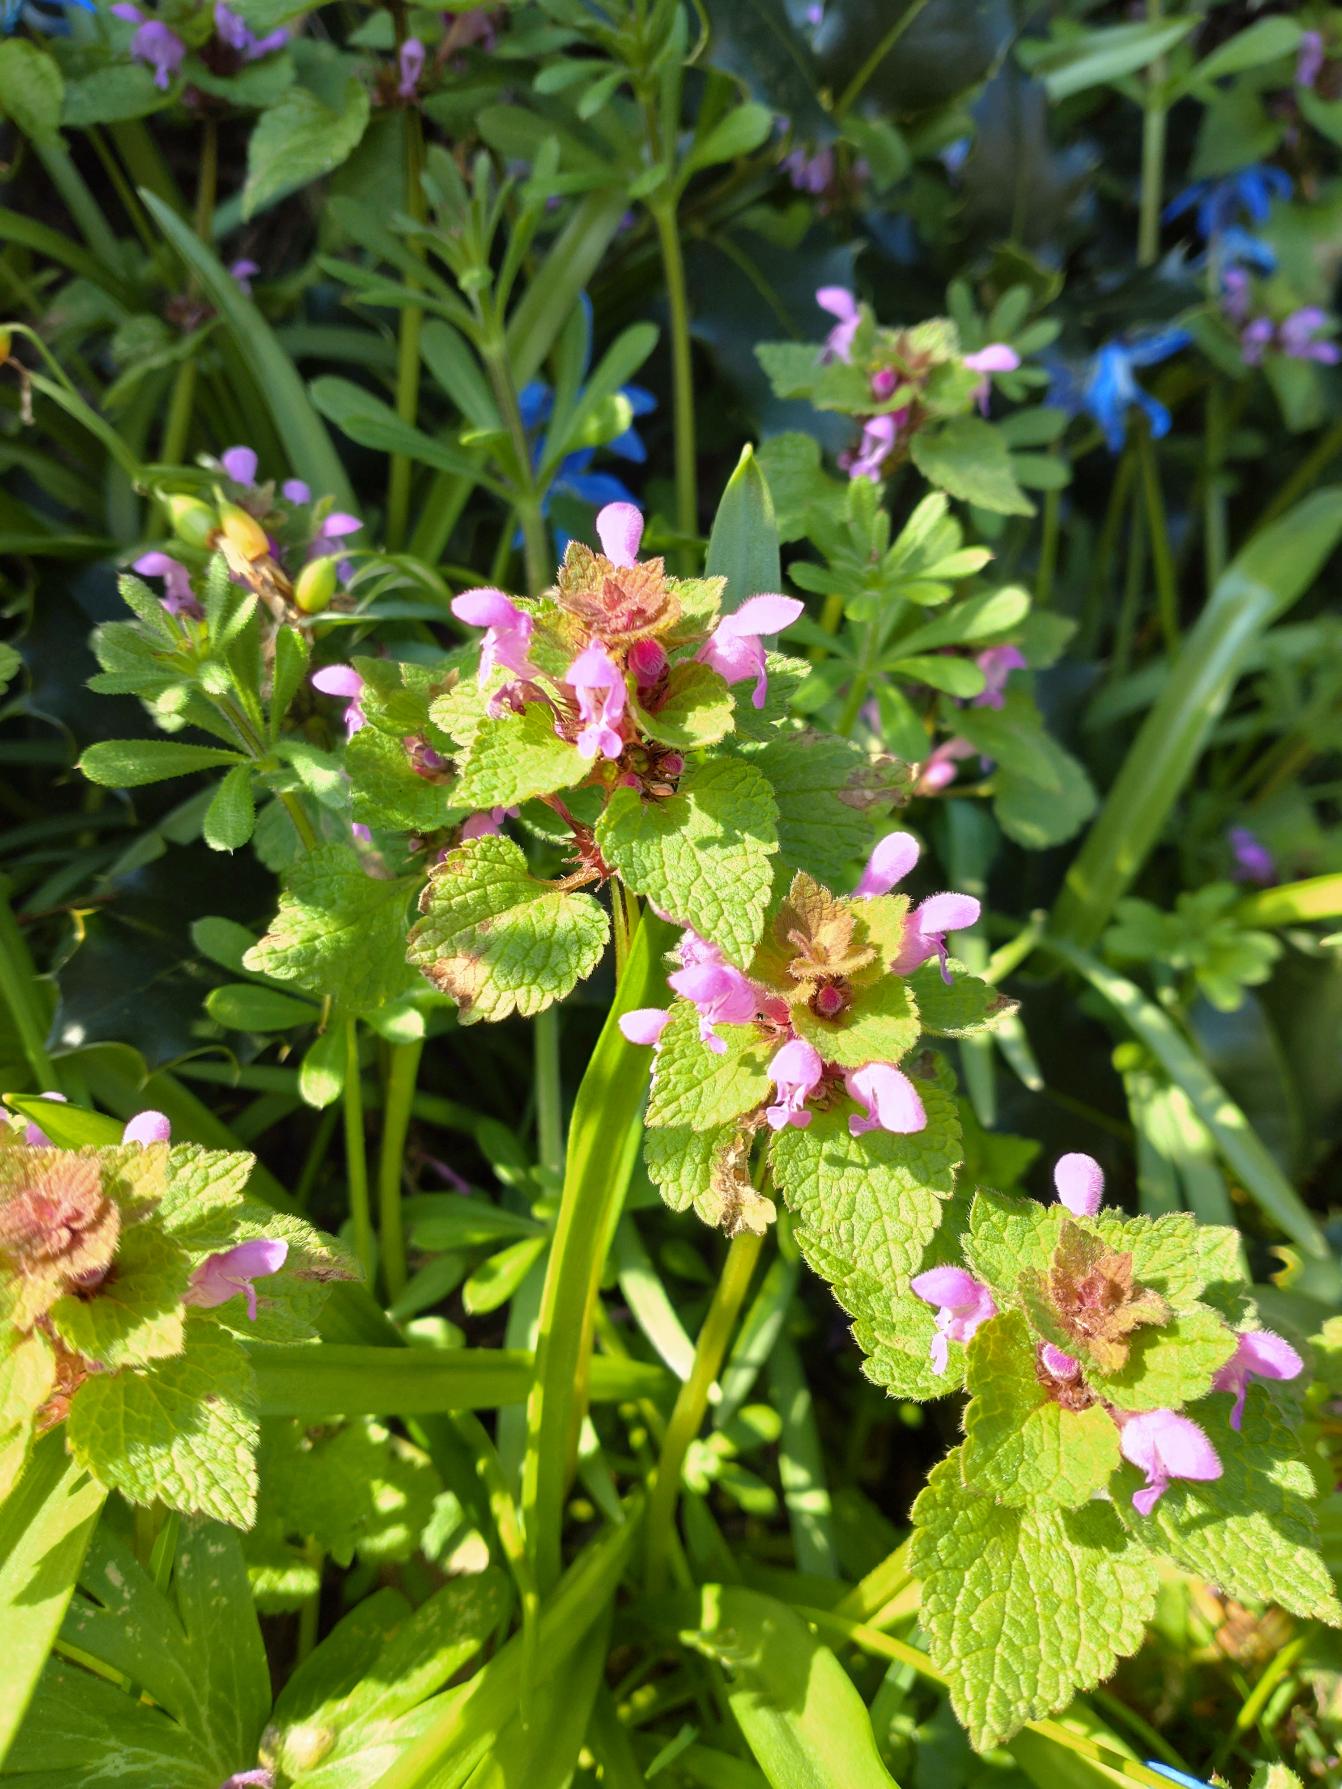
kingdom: Plantae
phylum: Tracheophyta
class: Magnoliopsida
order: Lamiales
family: Lamiaceae
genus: Lamium
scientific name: Lamium purpureum
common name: Rød tvetand
